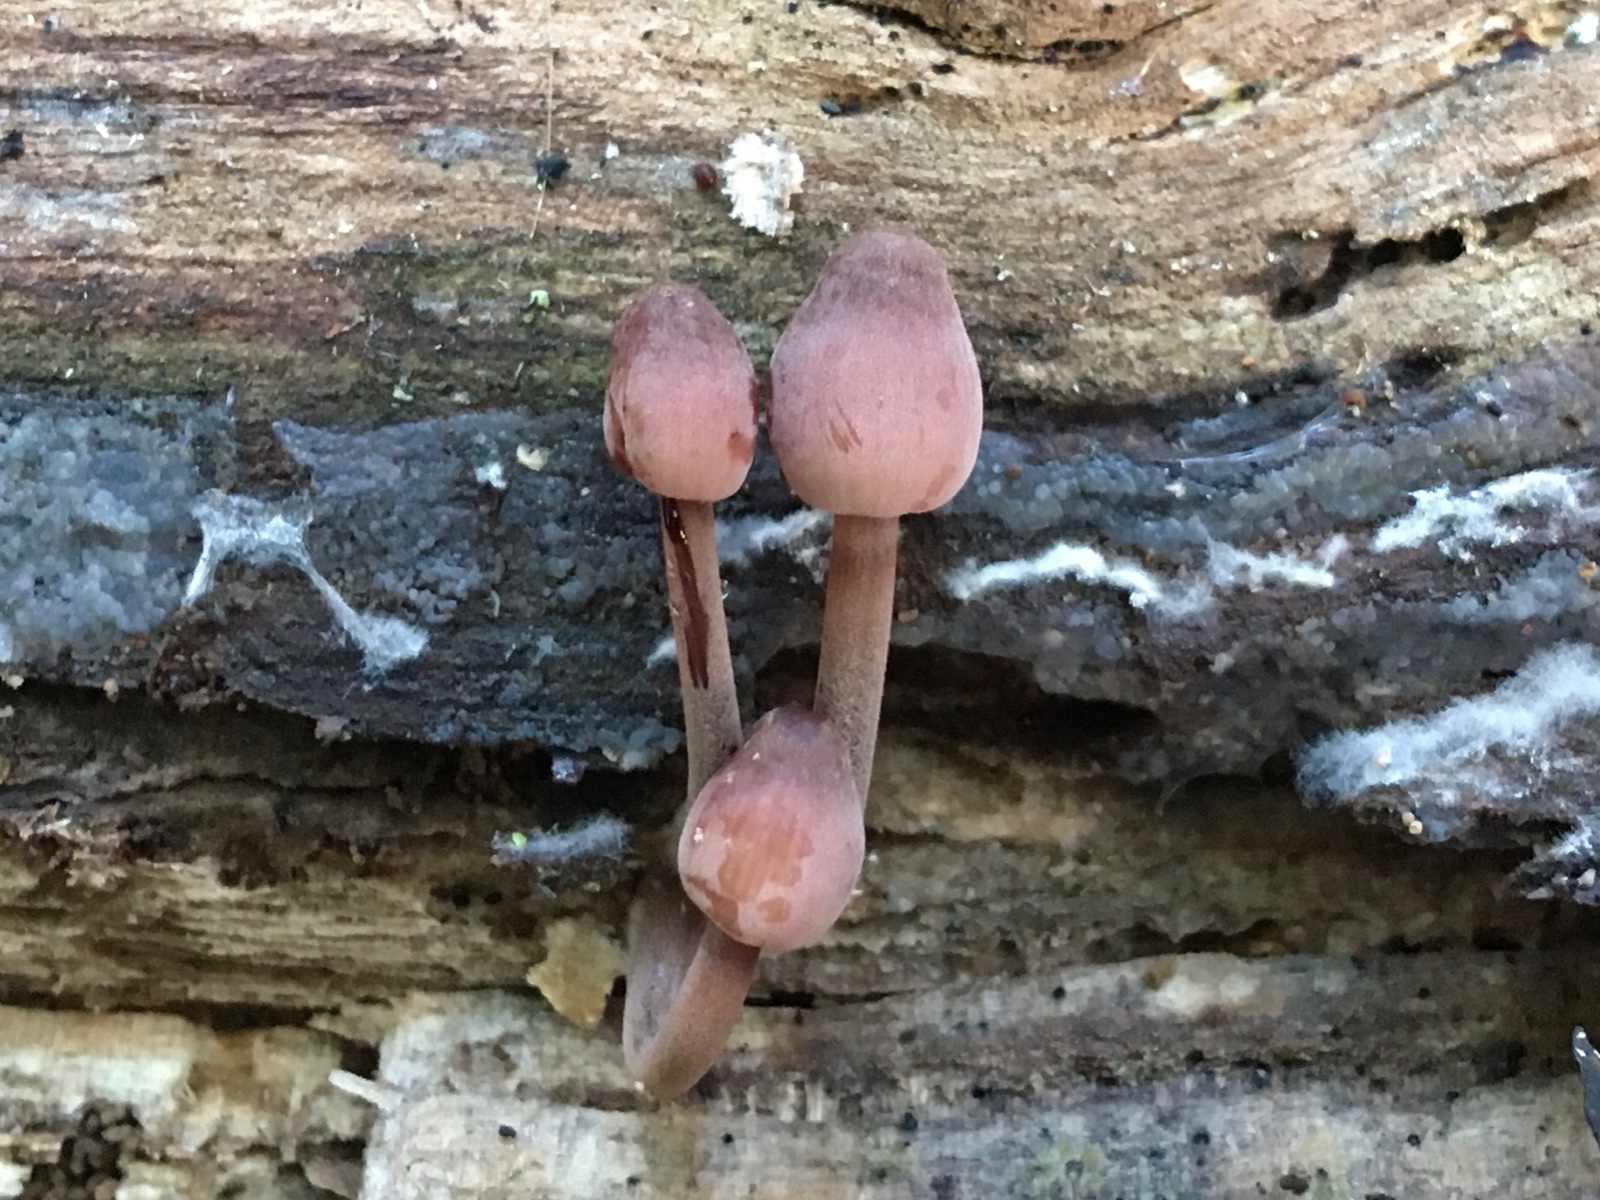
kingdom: Fungi
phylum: Basidiomycota
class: Agaricomycetes
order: Agaricales
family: Mycenaceae
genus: Mycena
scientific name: Mycena haematopus
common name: blødende huesvamp
